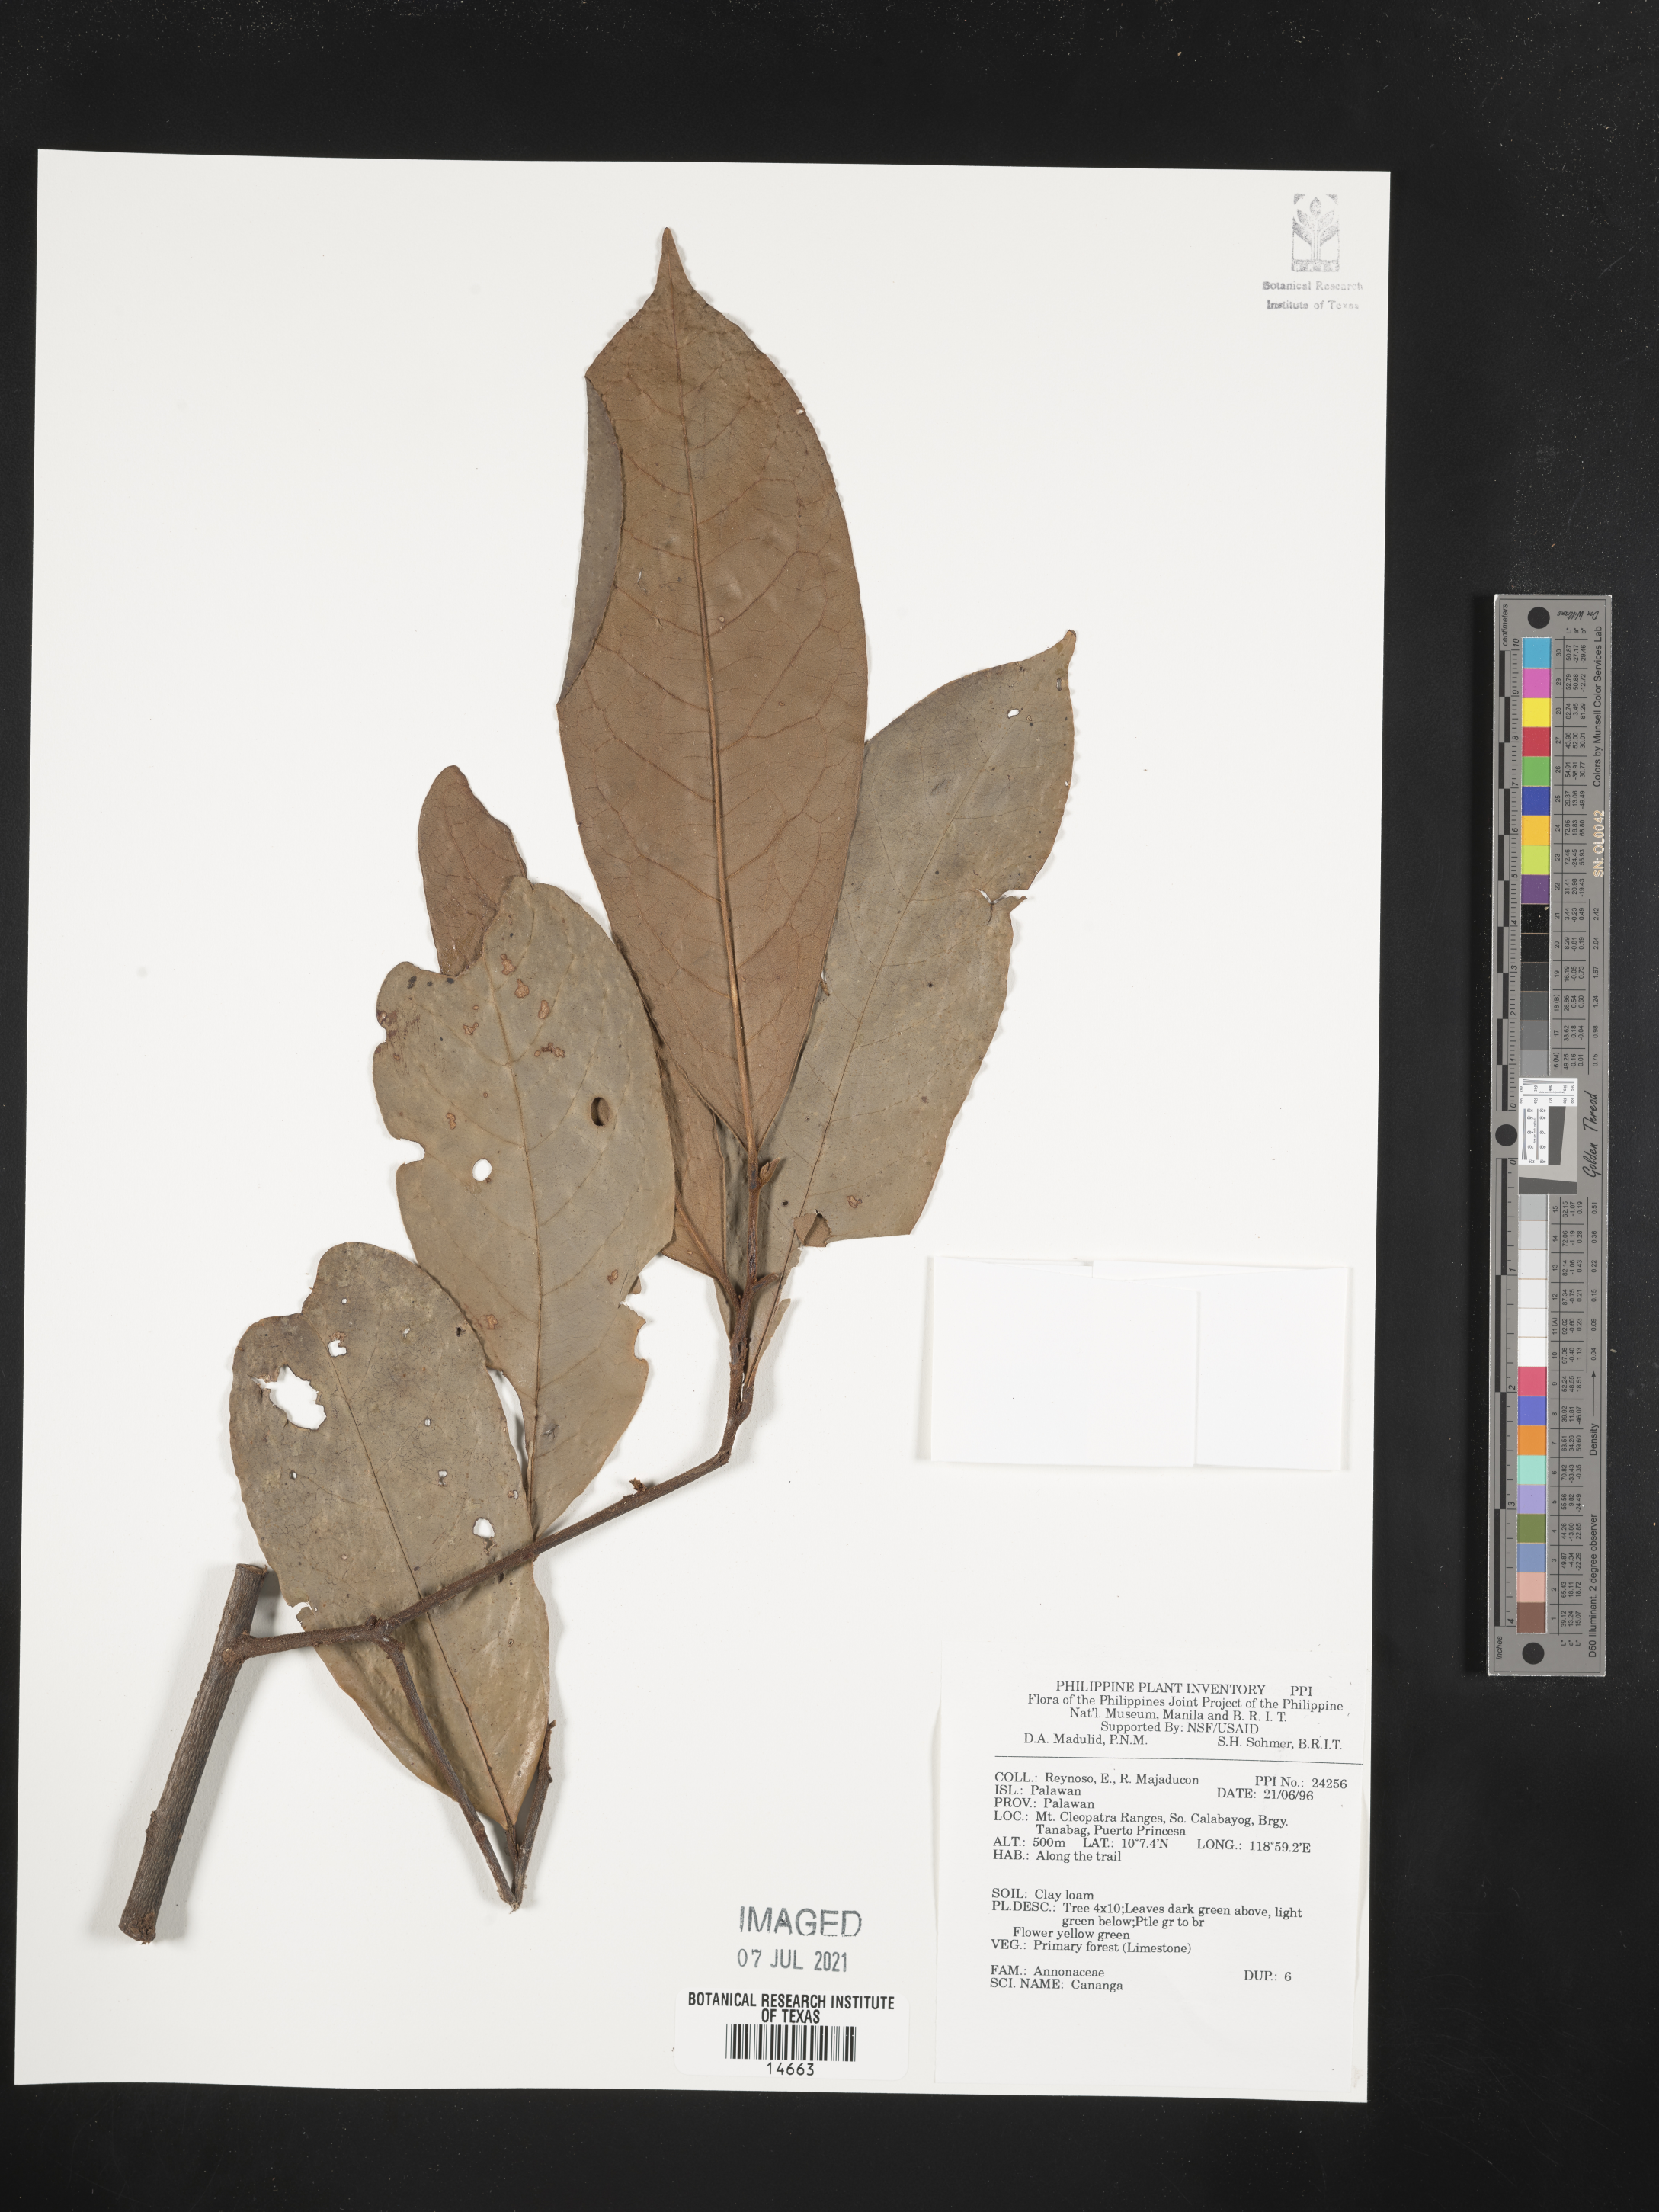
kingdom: Plantae
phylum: Tracheophyta
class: Magnoliopsida
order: Magnoliales
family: Annonaceae
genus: Cananga
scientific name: Cananga
